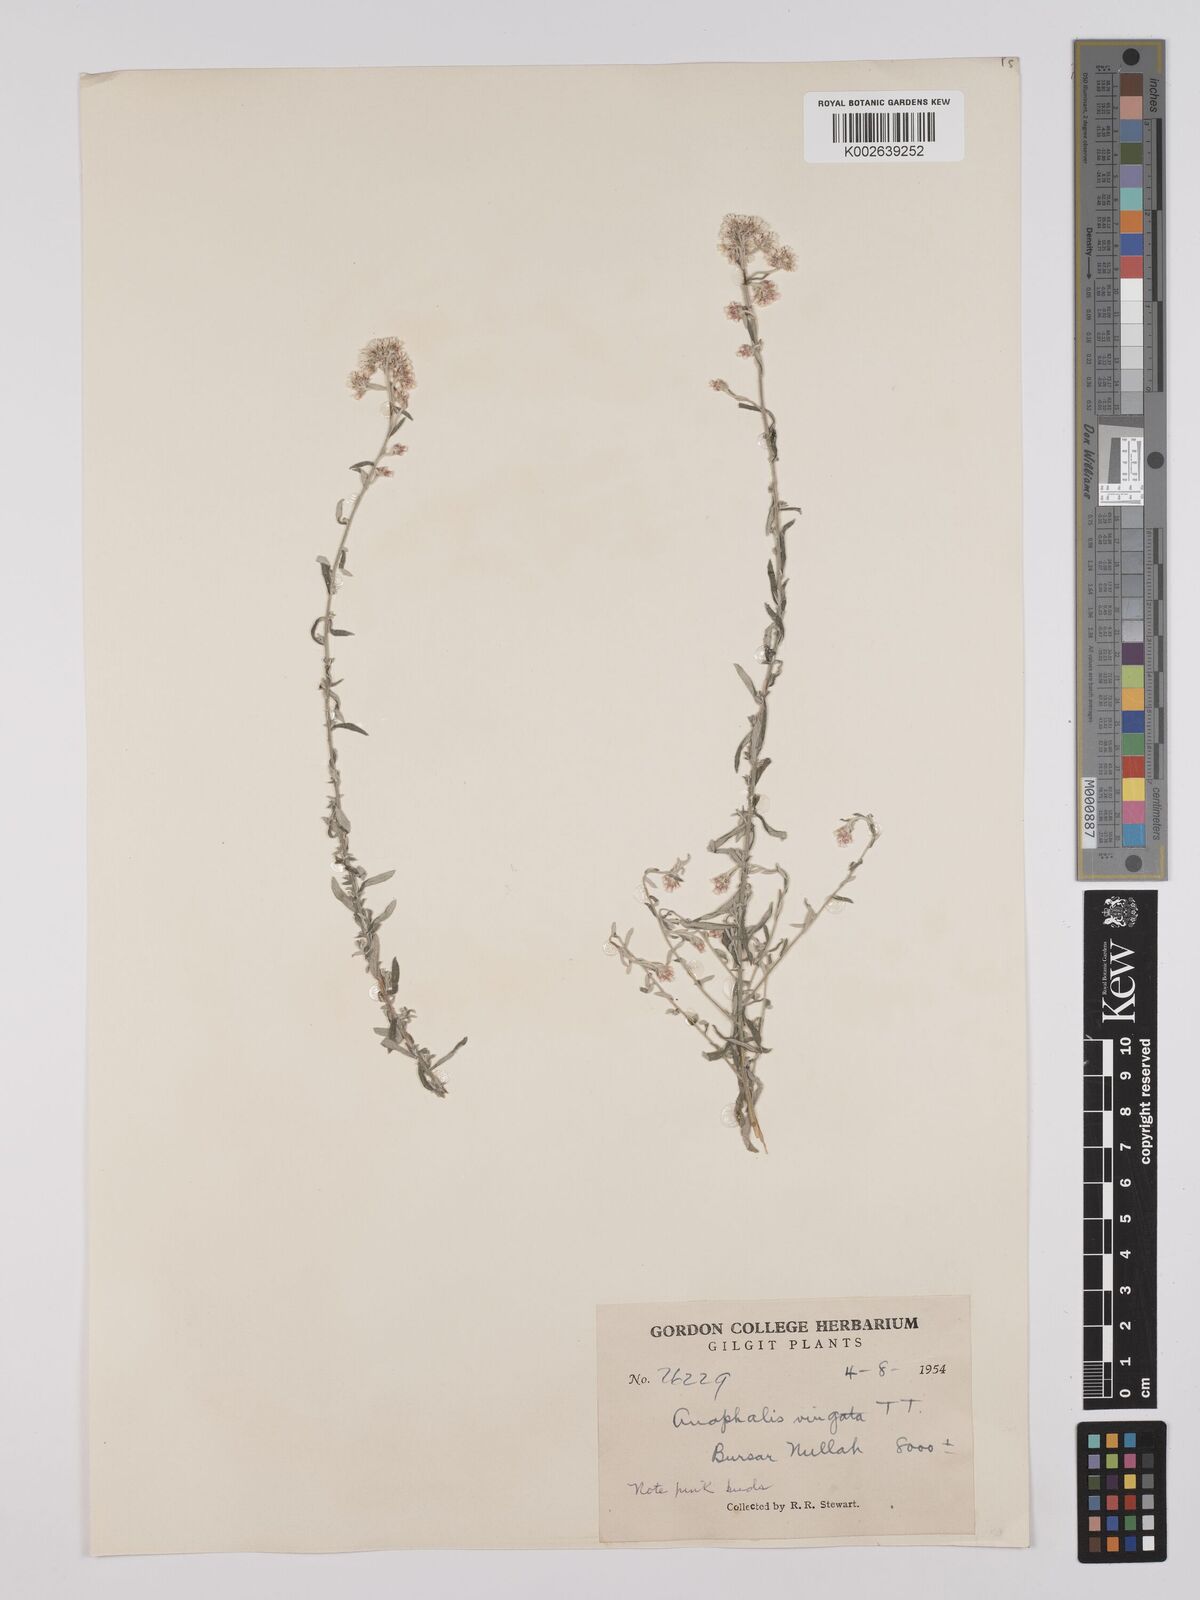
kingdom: Plantae
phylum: Tracheophyta
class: Magnoliopsida
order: Asterales
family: Asteraceae
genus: Anaphalis
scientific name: Anaphalis
